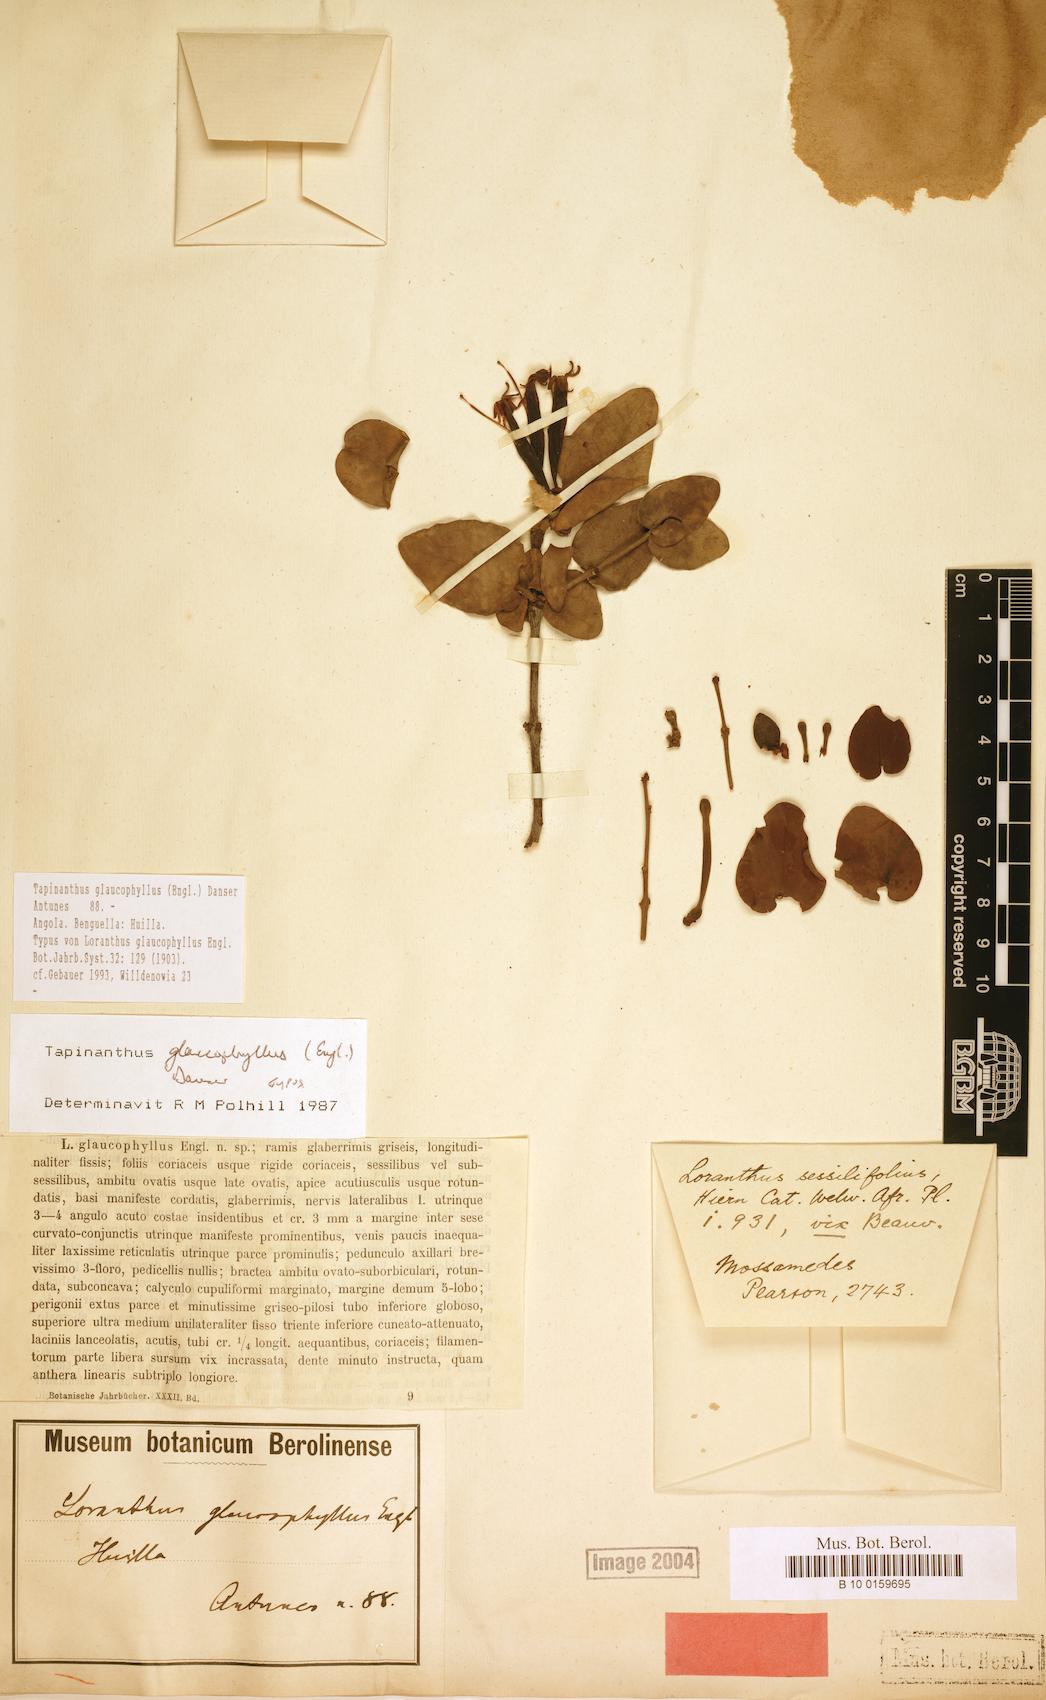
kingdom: Plantae
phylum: Tracheophyta
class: Magnoliopsida
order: Santalales
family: Loranthaceae
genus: Tapinanthus
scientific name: Tapinanthus glaucophyllus
